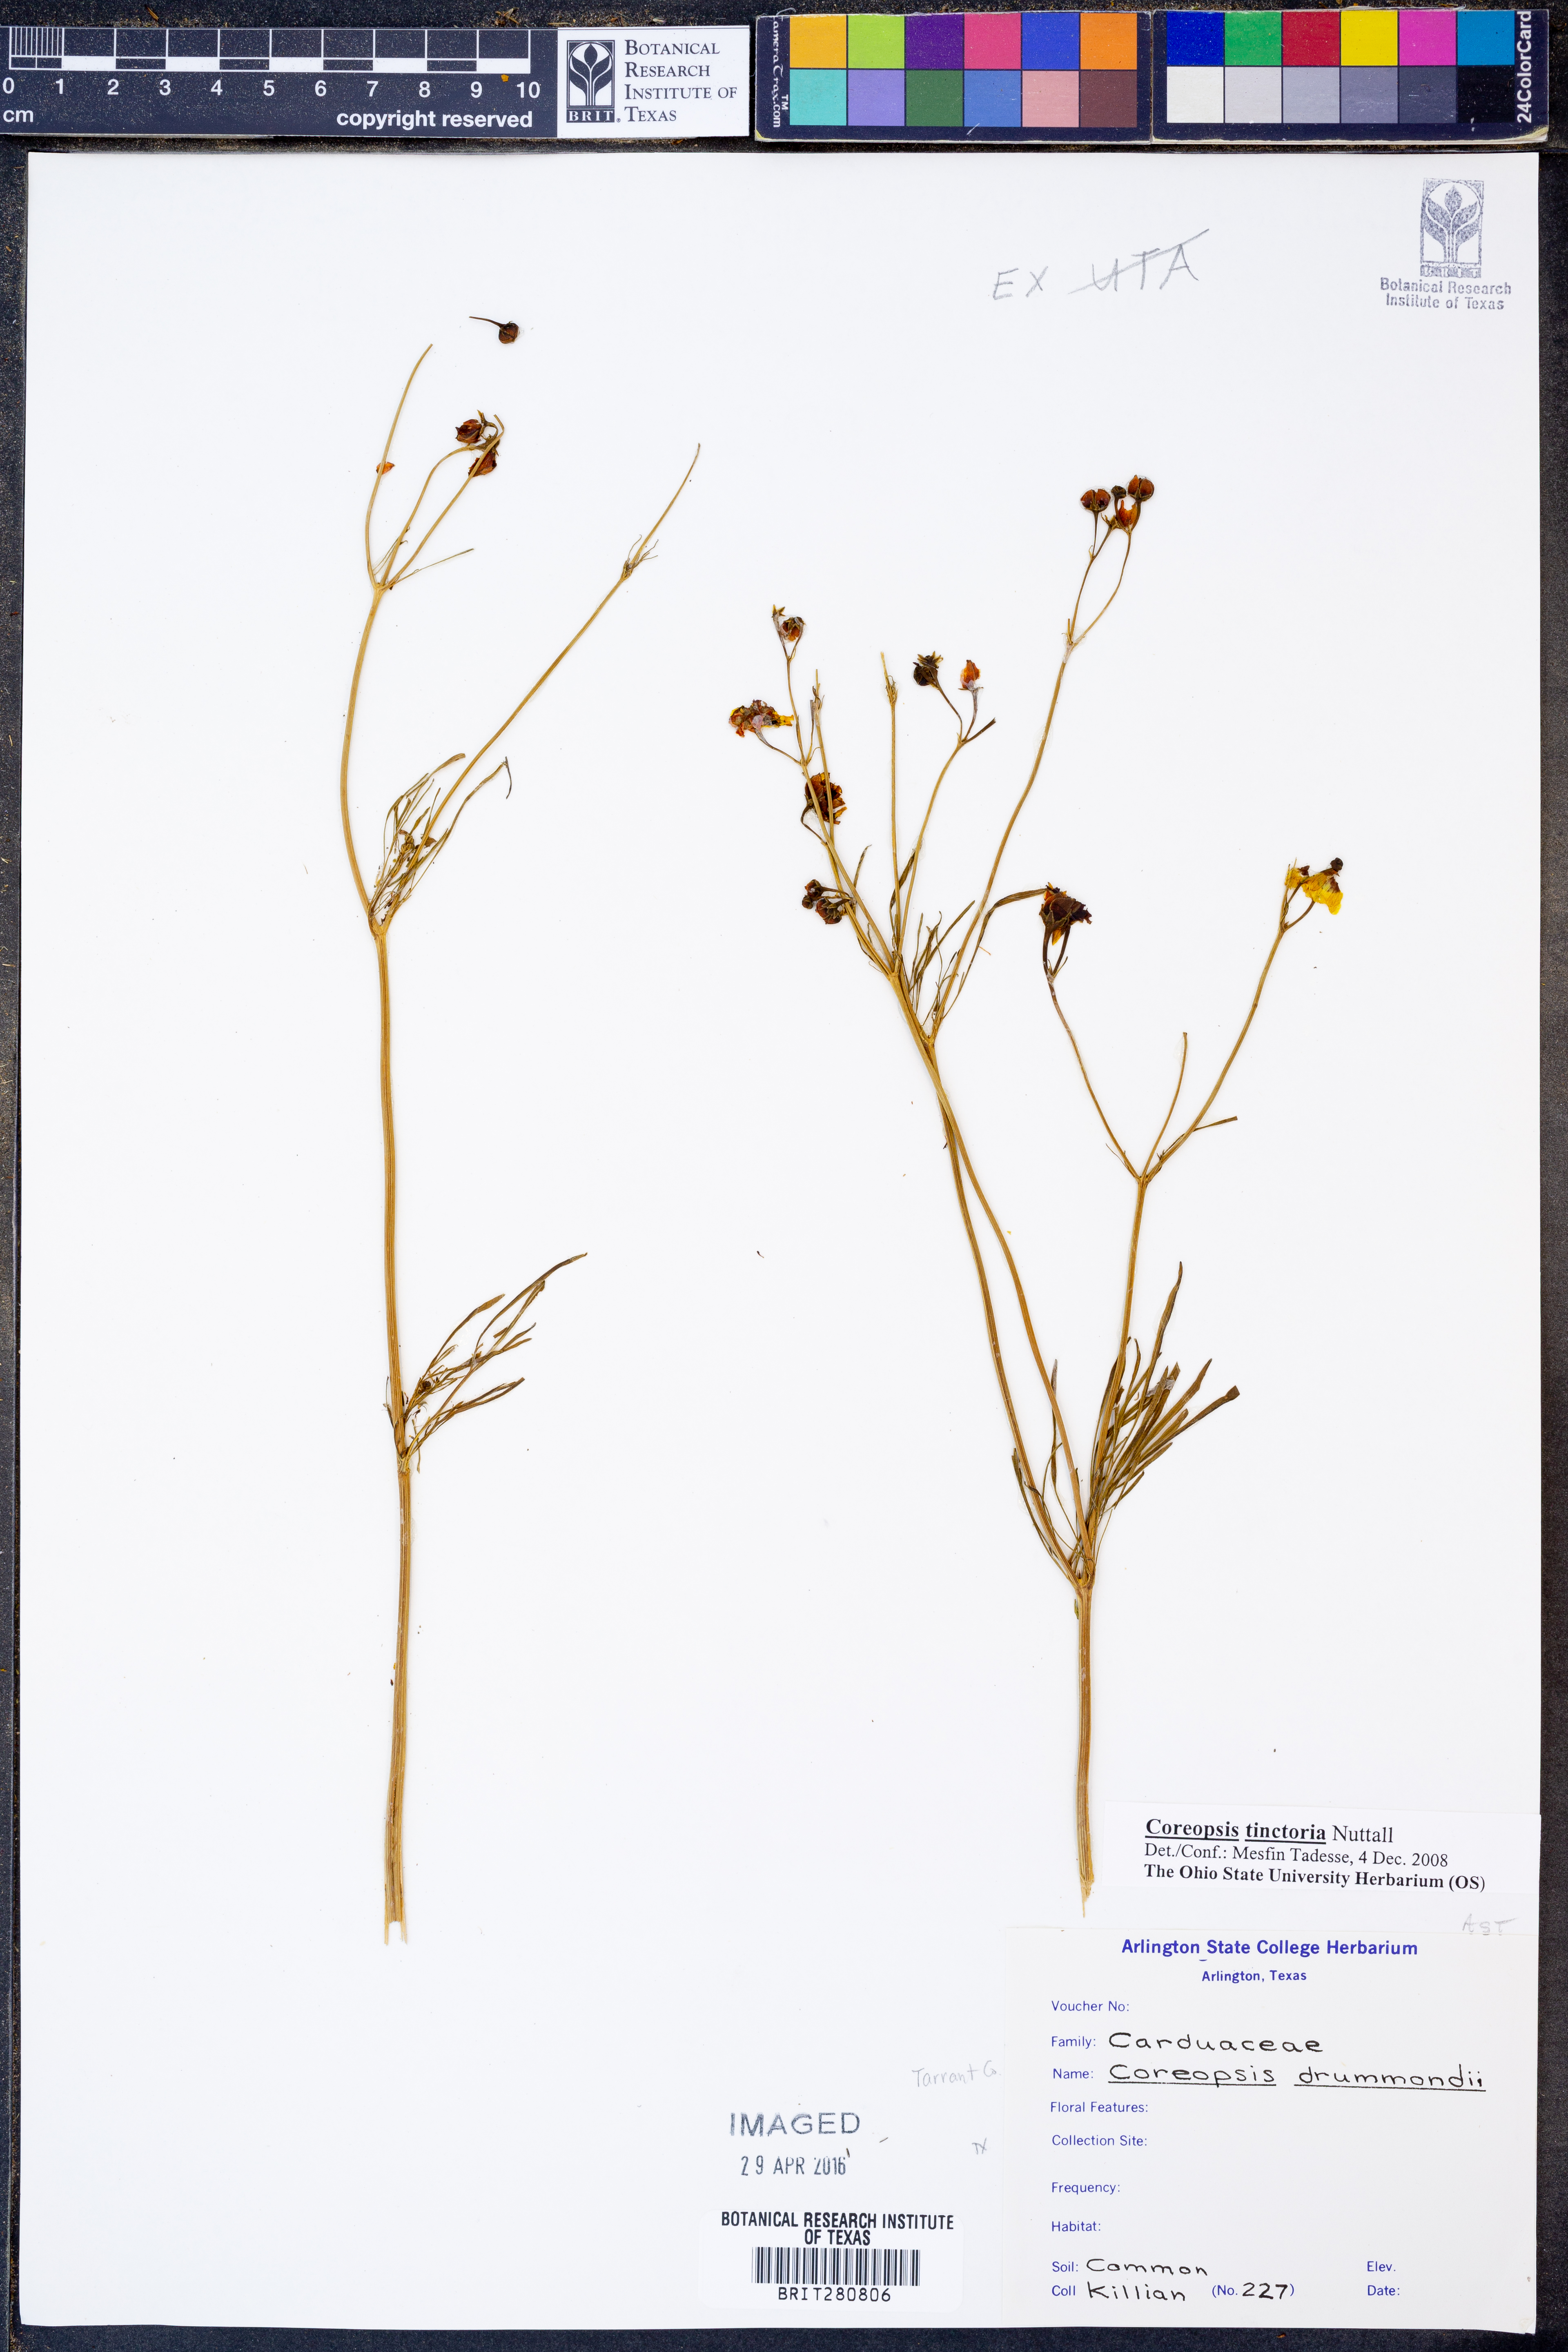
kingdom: Plantae
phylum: Tracheophyta
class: Magnoliopsida
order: Asterales
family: Asteraceae
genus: Coreopsis
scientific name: Coreopsis tinctoria
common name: Garden tickseed
